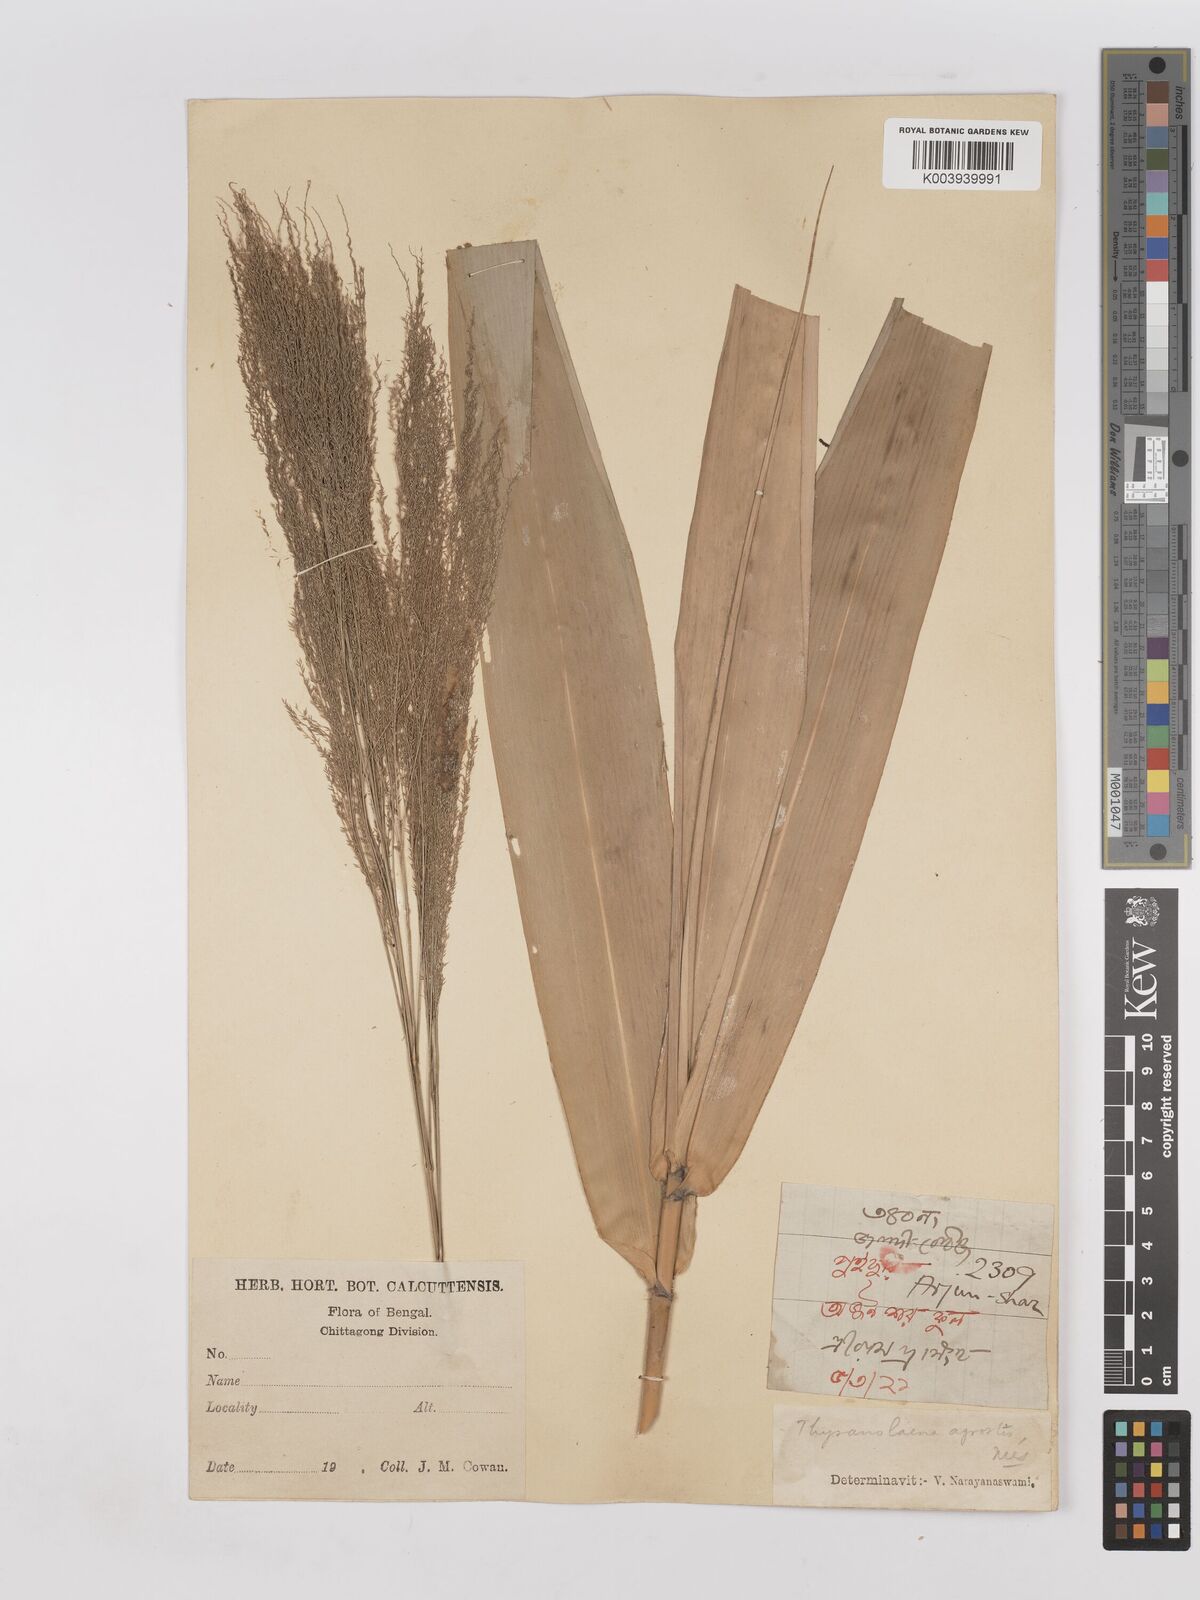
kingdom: Plantae
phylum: Tracheophyta
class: Liliopsida
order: Poales
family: Poaceae
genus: Thysanolaena
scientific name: Thysanolaena latifolia
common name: Tiger grass
